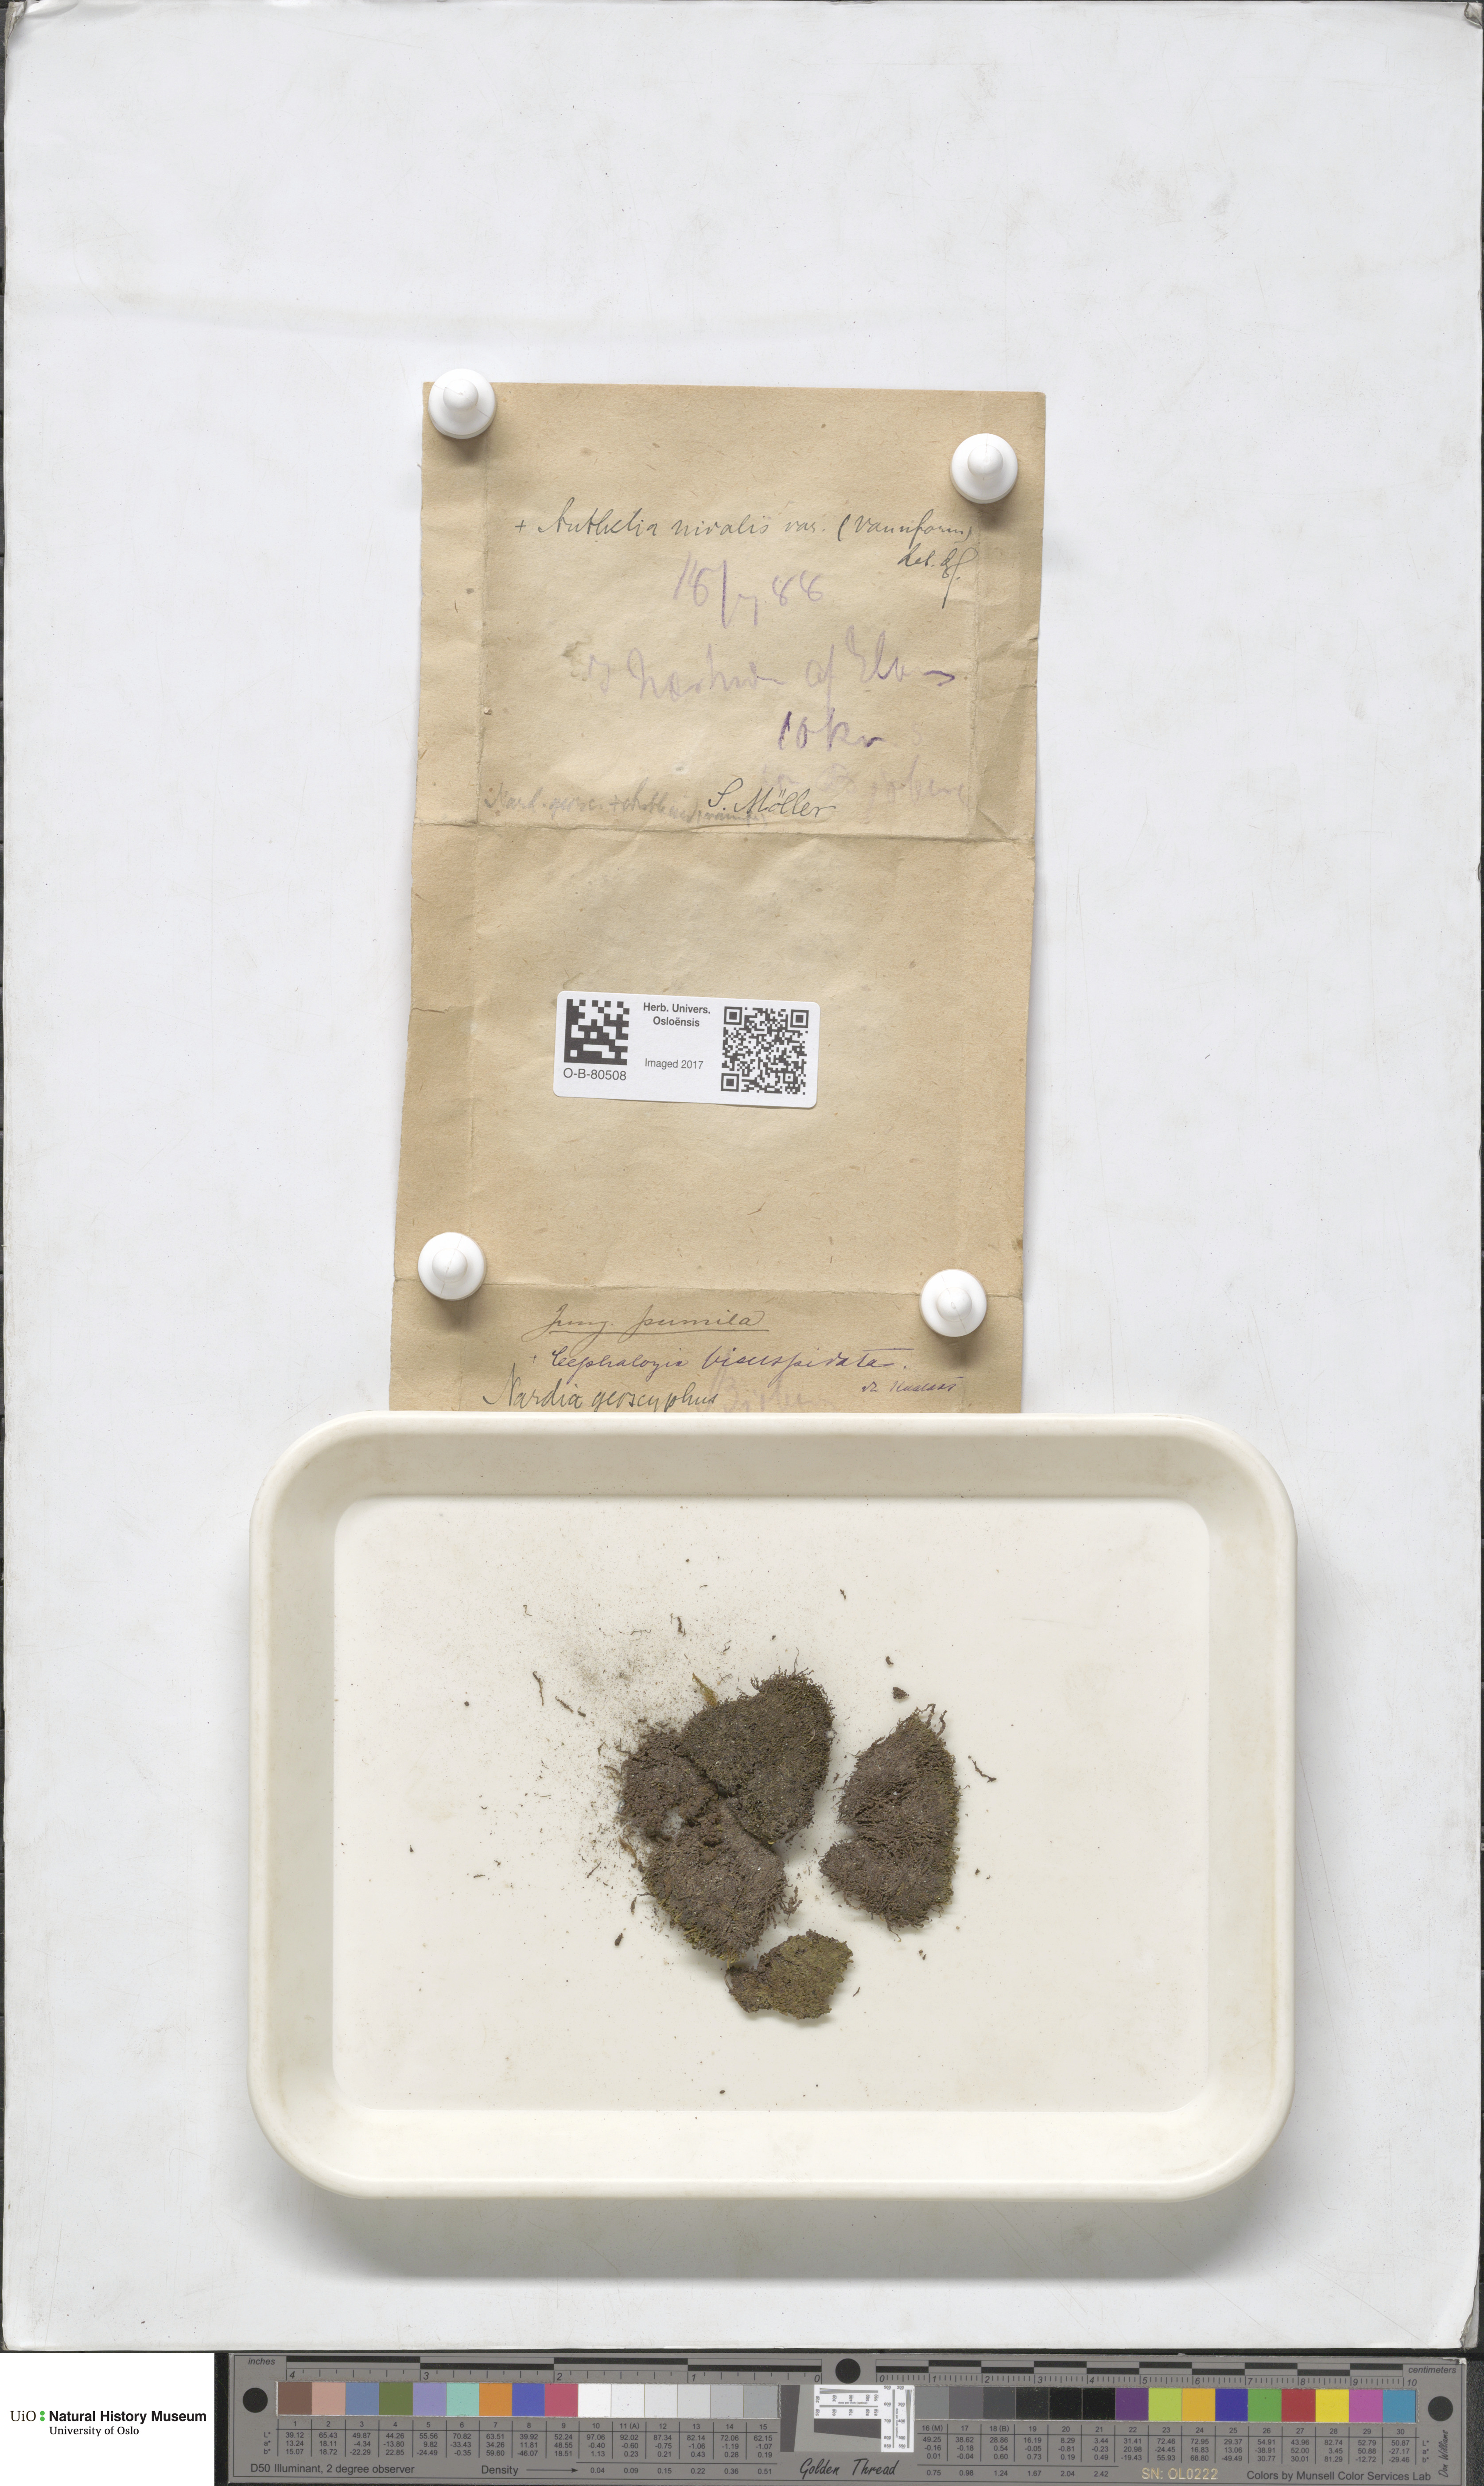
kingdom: Plantae
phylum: Marchantiophyta
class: Jungermanniopsida
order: Jungermanniales
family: Gymnomitriaceae
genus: Nardia
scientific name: Nardia geoscyphus
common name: Earth-cup flapwort
